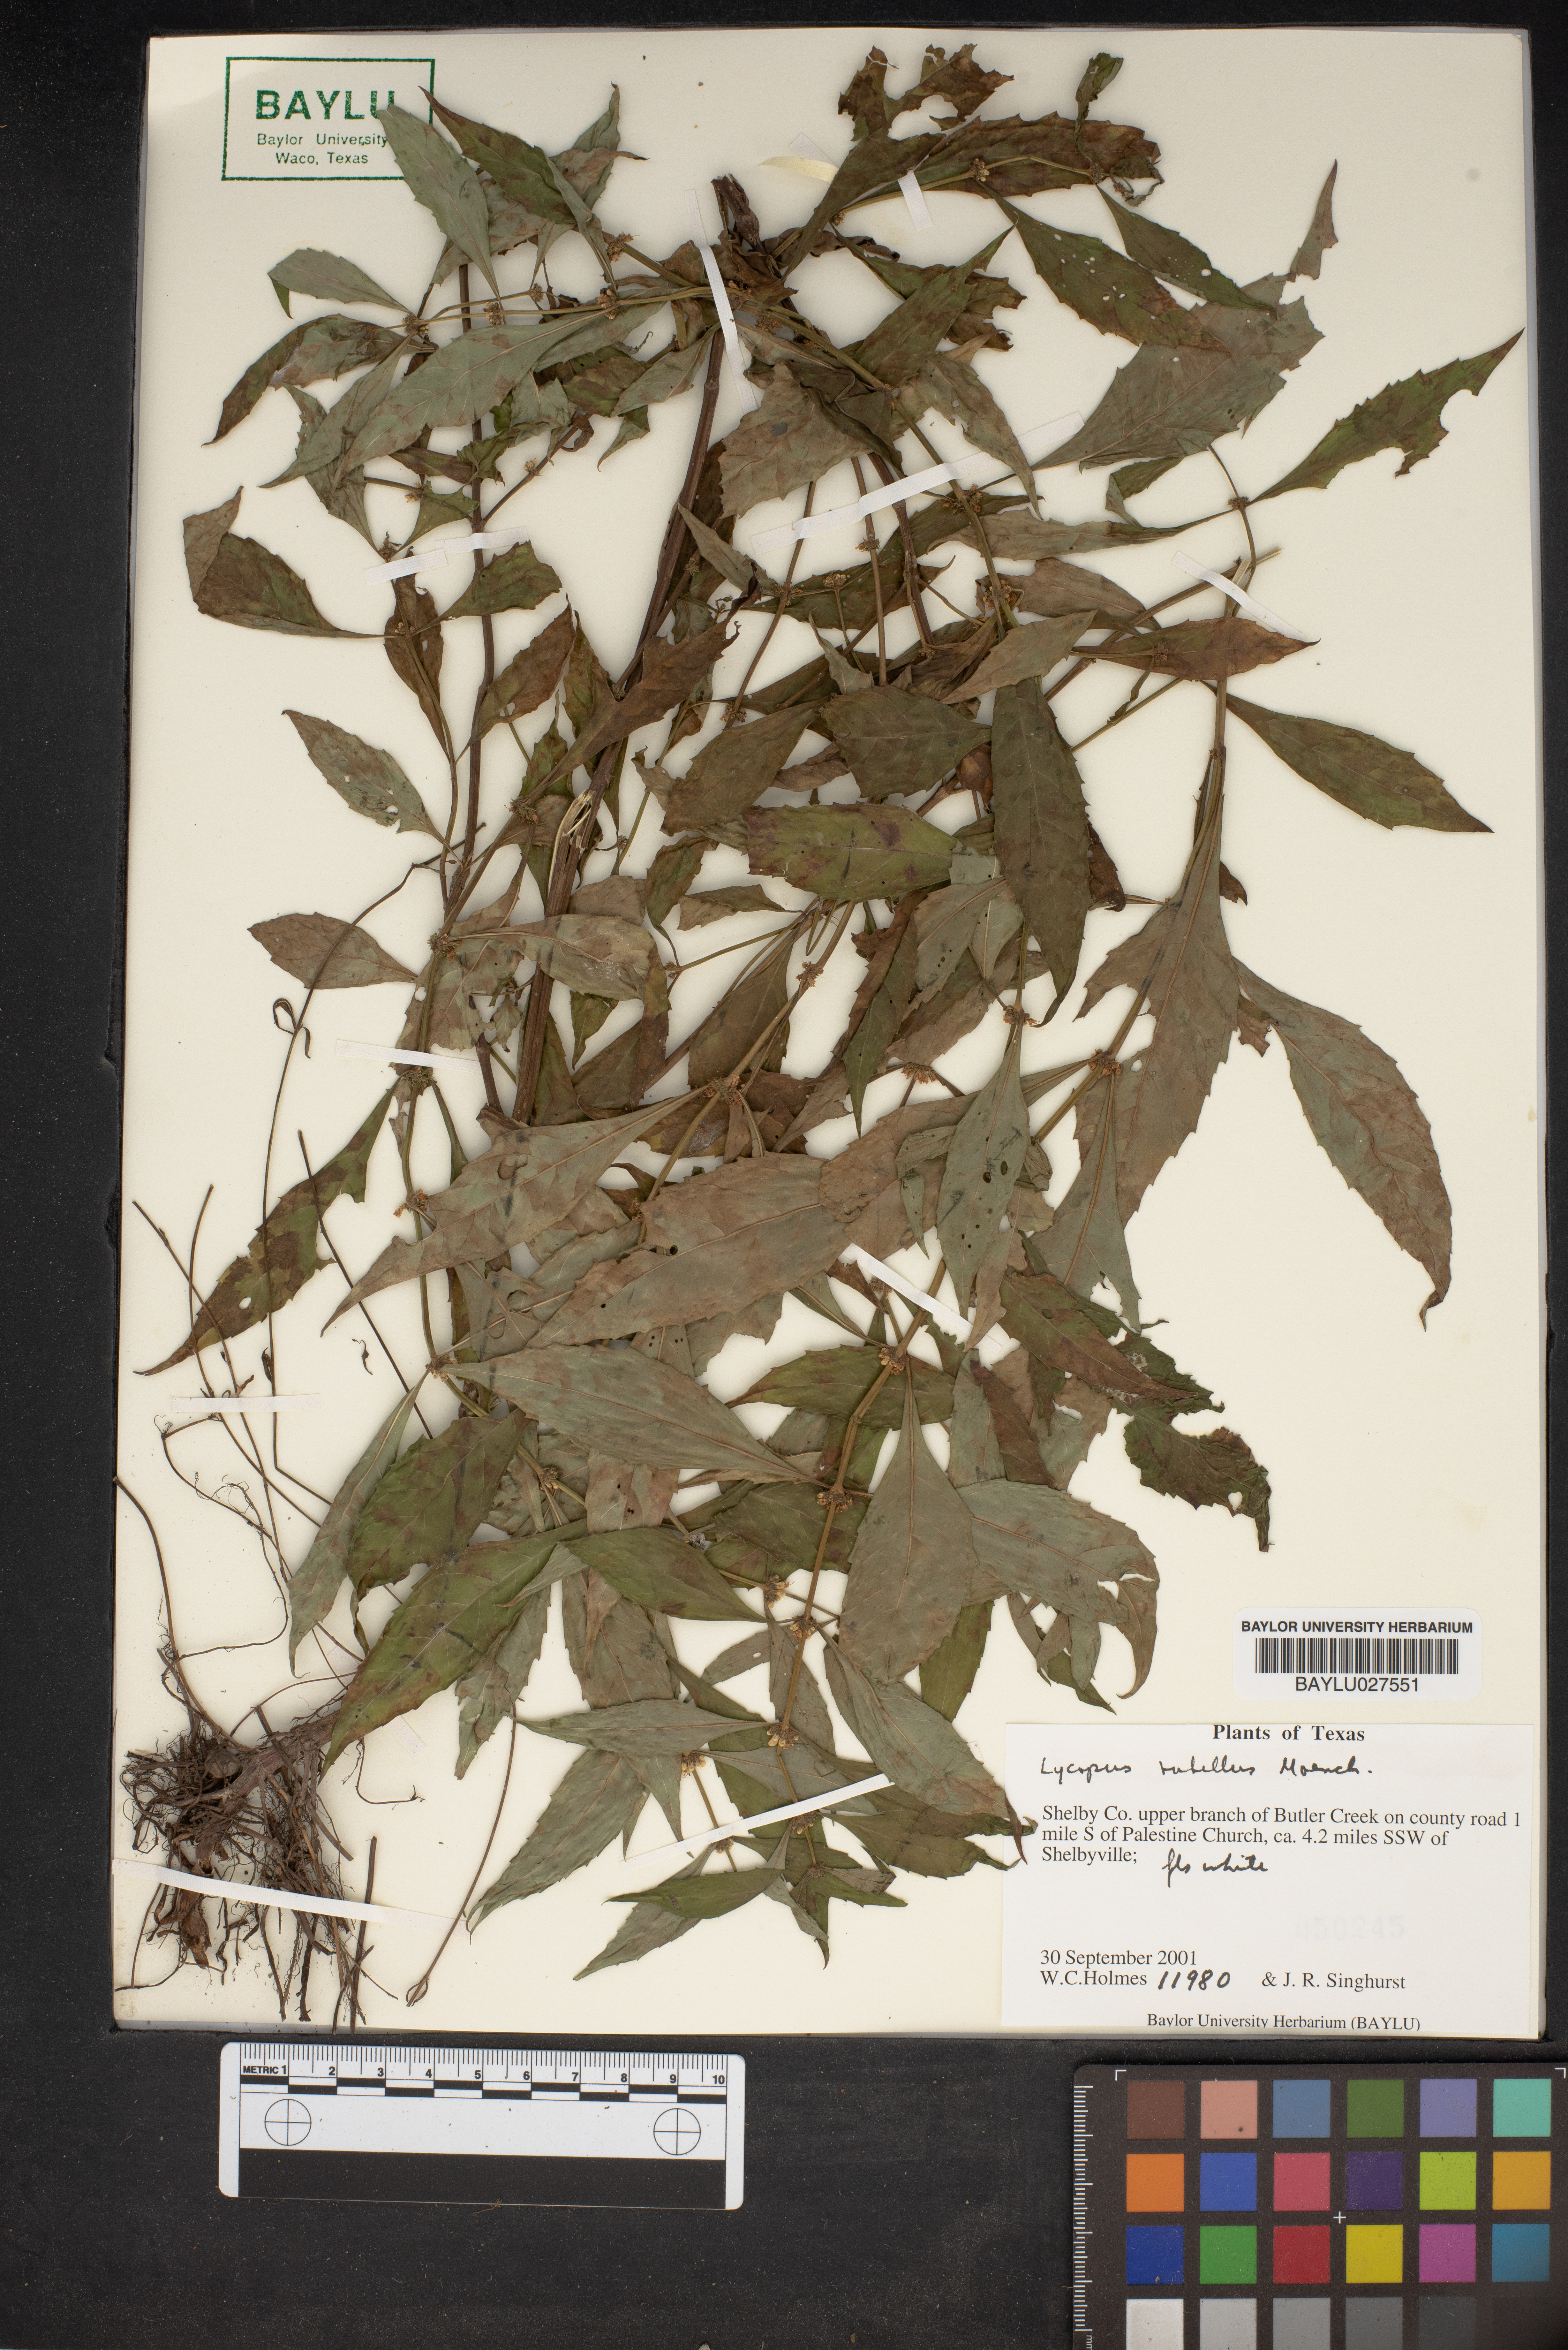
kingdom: Plantae
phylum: Tracheophyta
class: Magnoliopsida
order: Lamiales
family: Lamiaceae
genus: Lycopus
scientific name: Lycopus rubellus
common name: Stalked bugleweed
